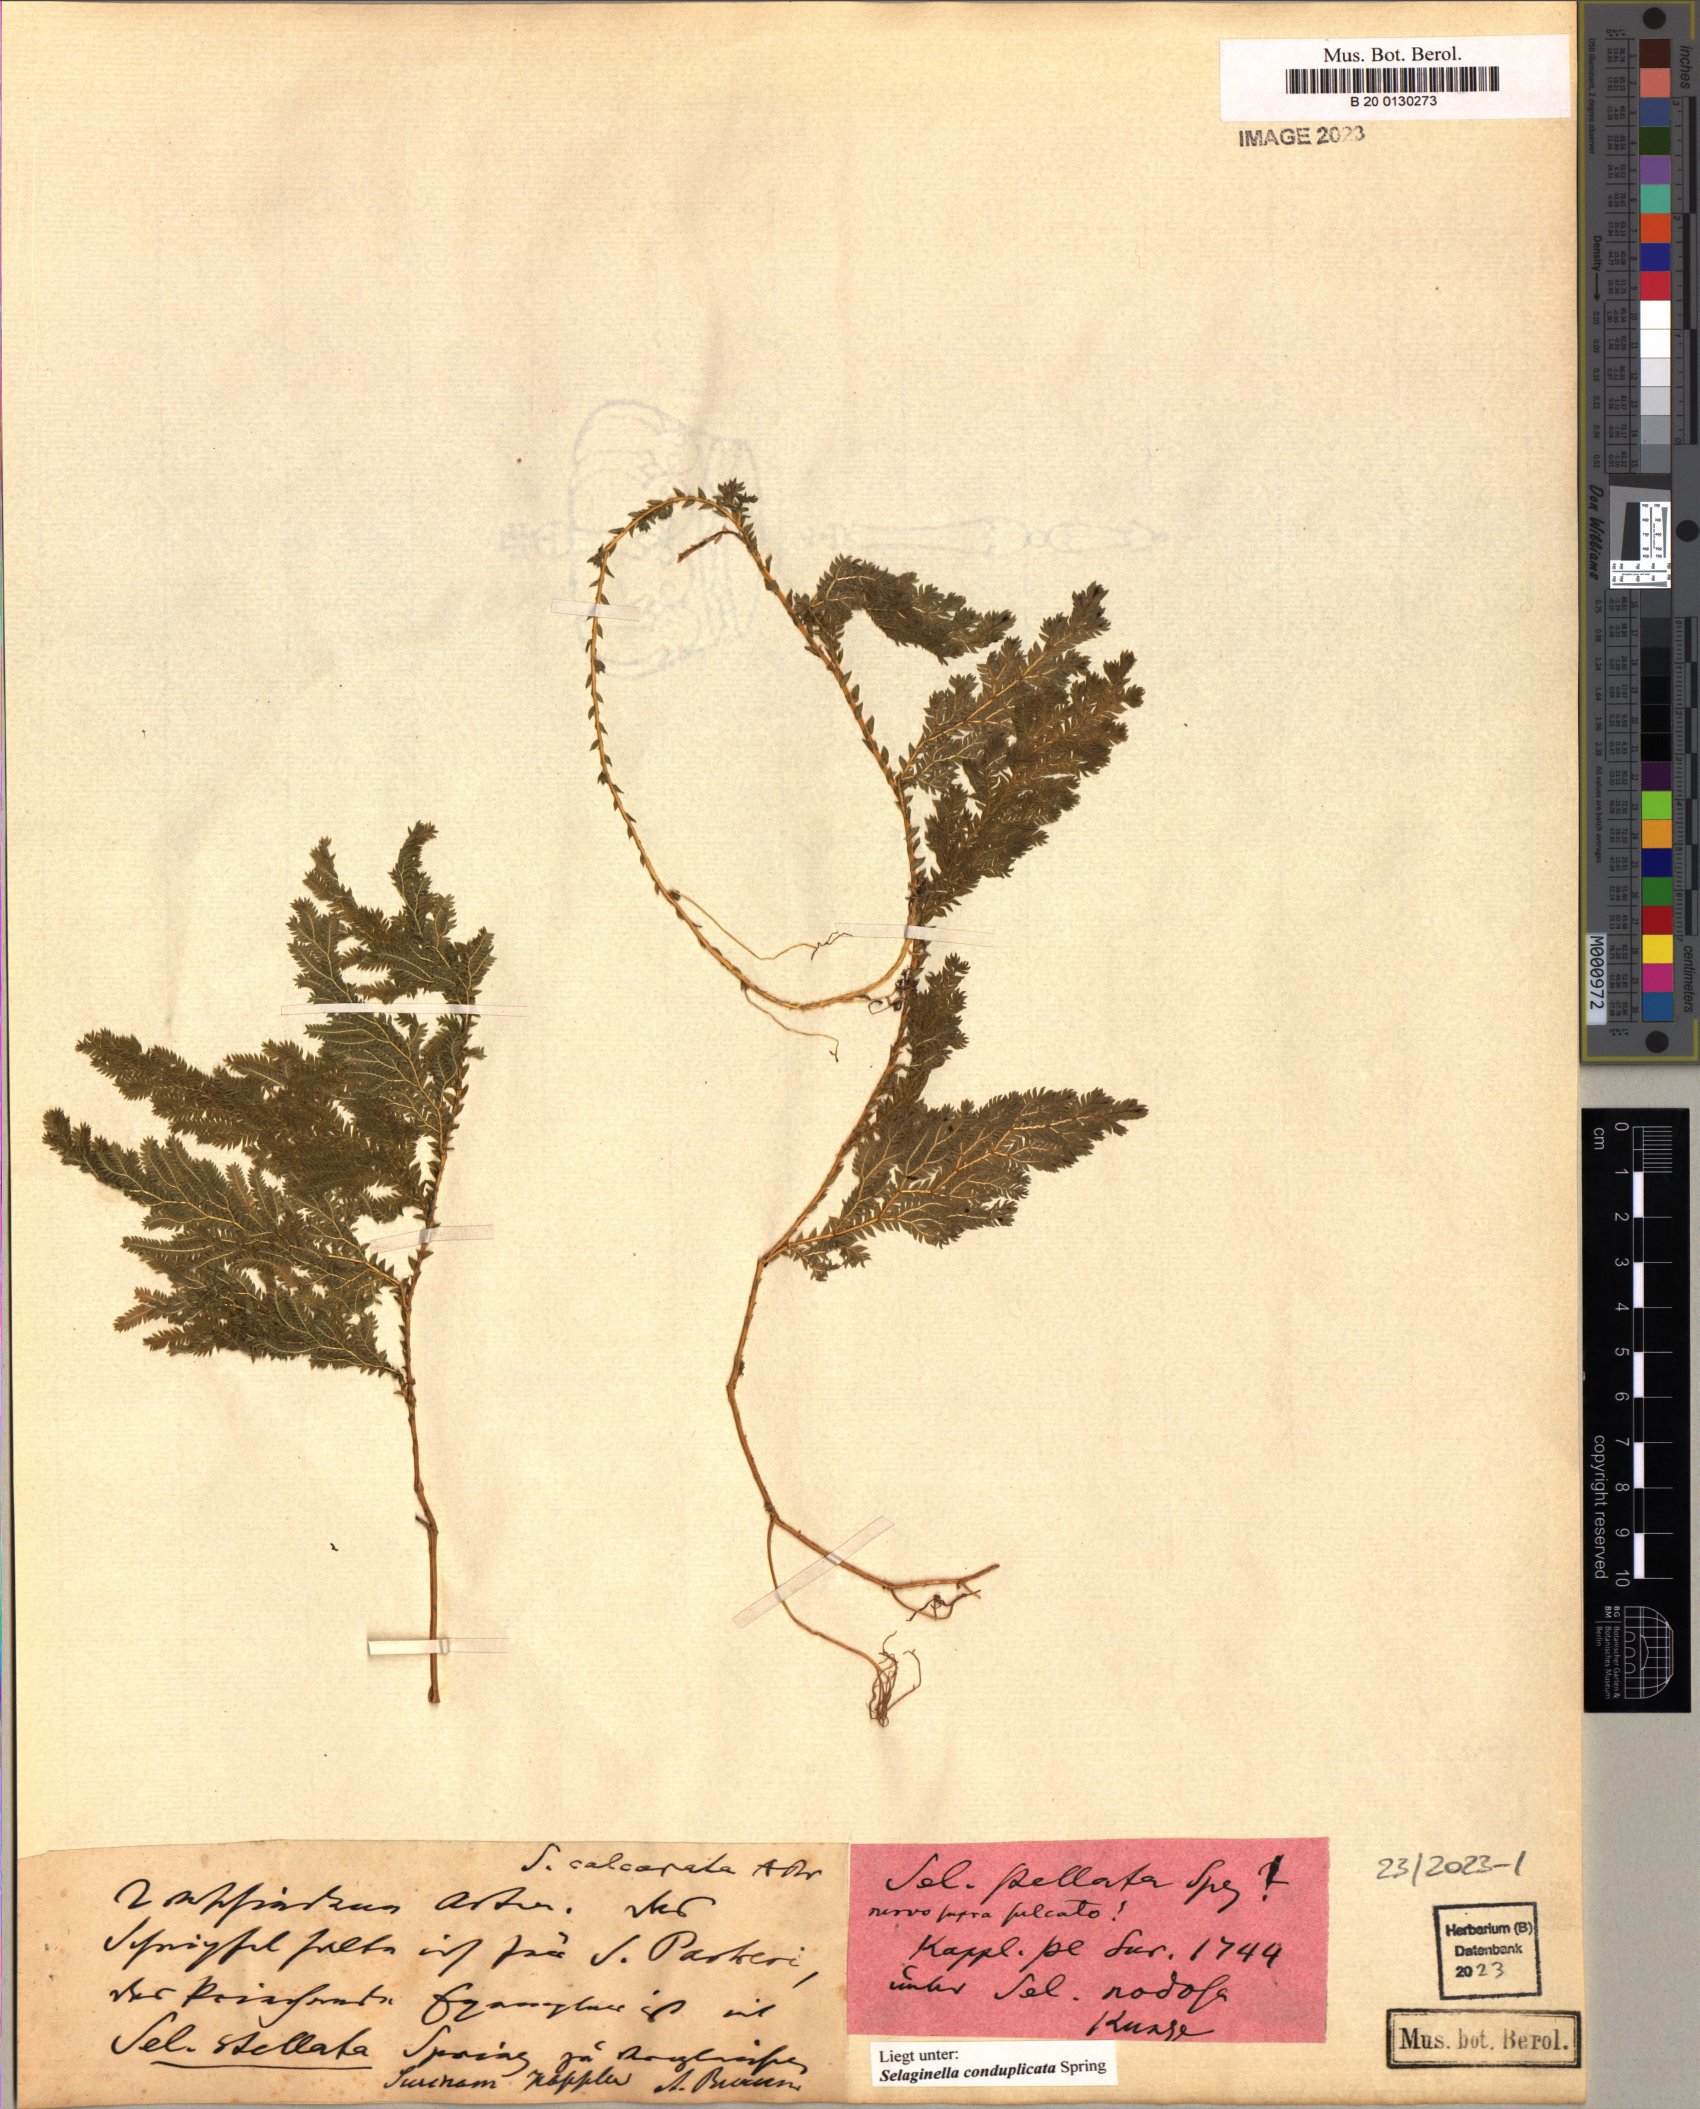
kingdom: Plantae
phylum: Tracheophyta
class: Lycopodiopsida
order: Selaginellales
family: Selaginellaceae
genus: Selaginella
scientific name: Selaginella conduplicata
